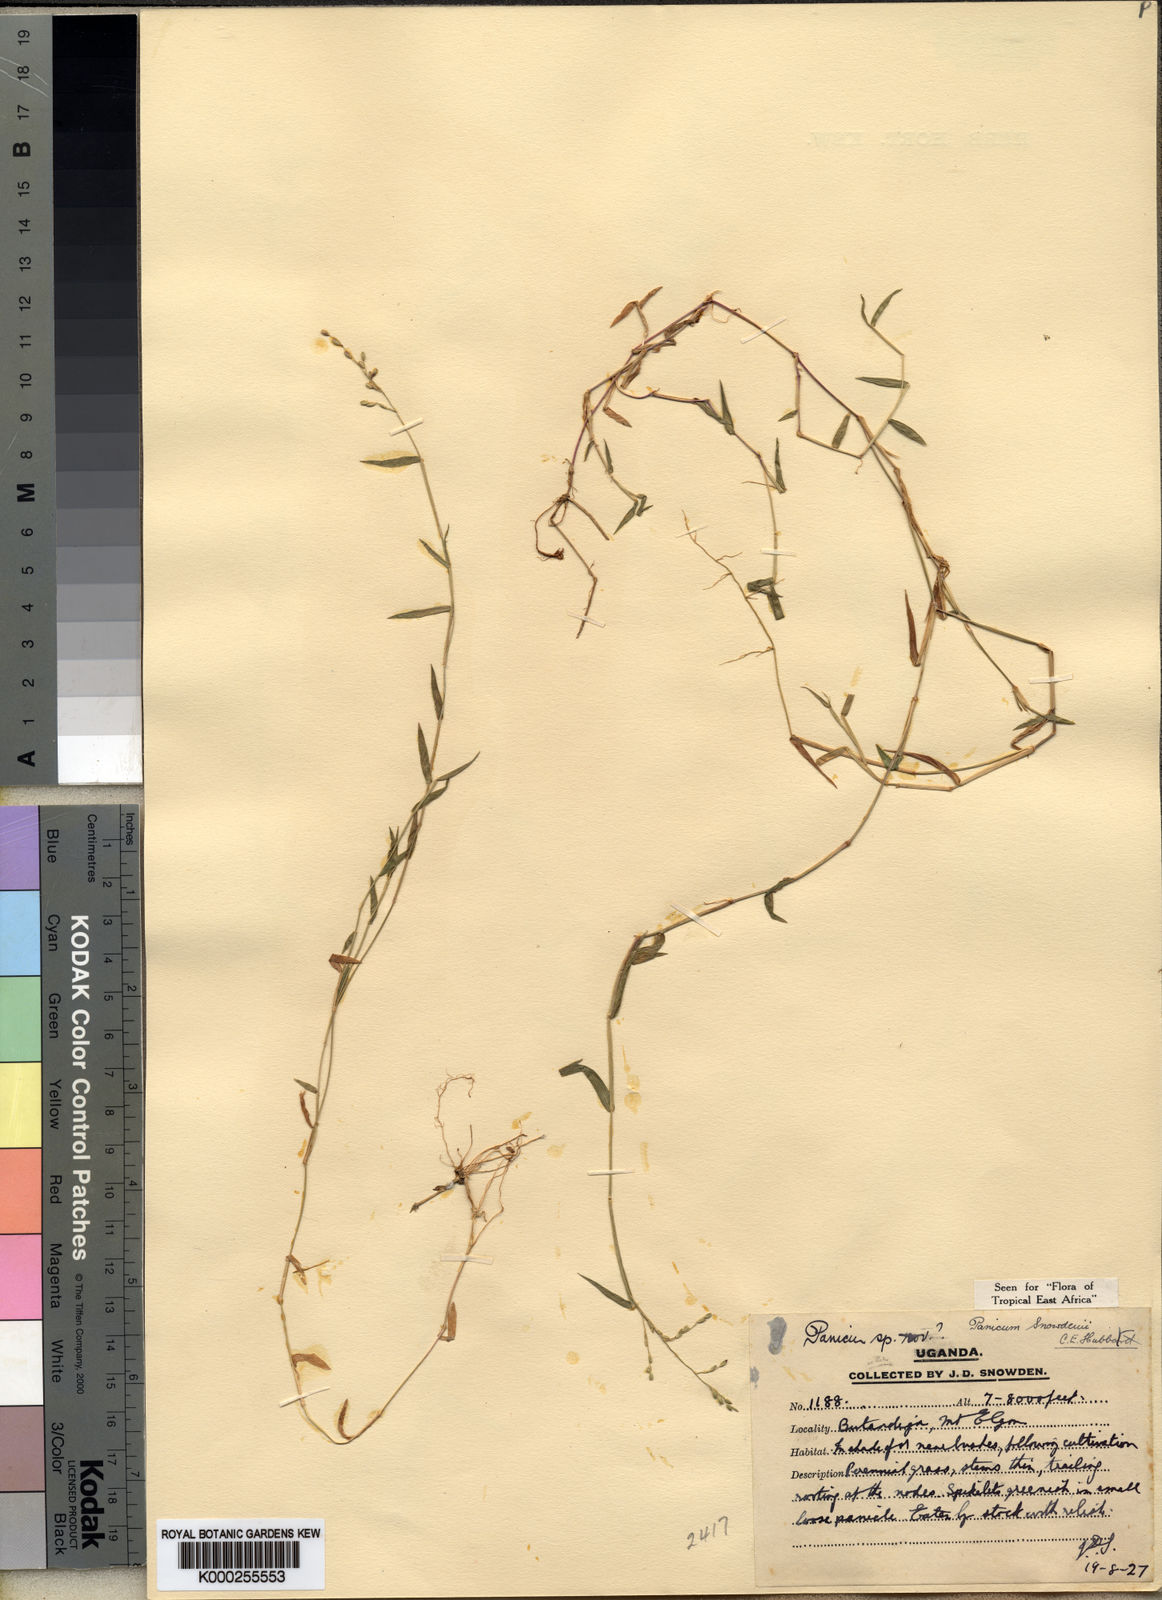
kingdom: Plantae
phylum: Tracheophyta
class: Liliopsida
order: Poales
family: Poaceae
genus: Adenochloa
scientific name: Adenochloa hymeniochila
